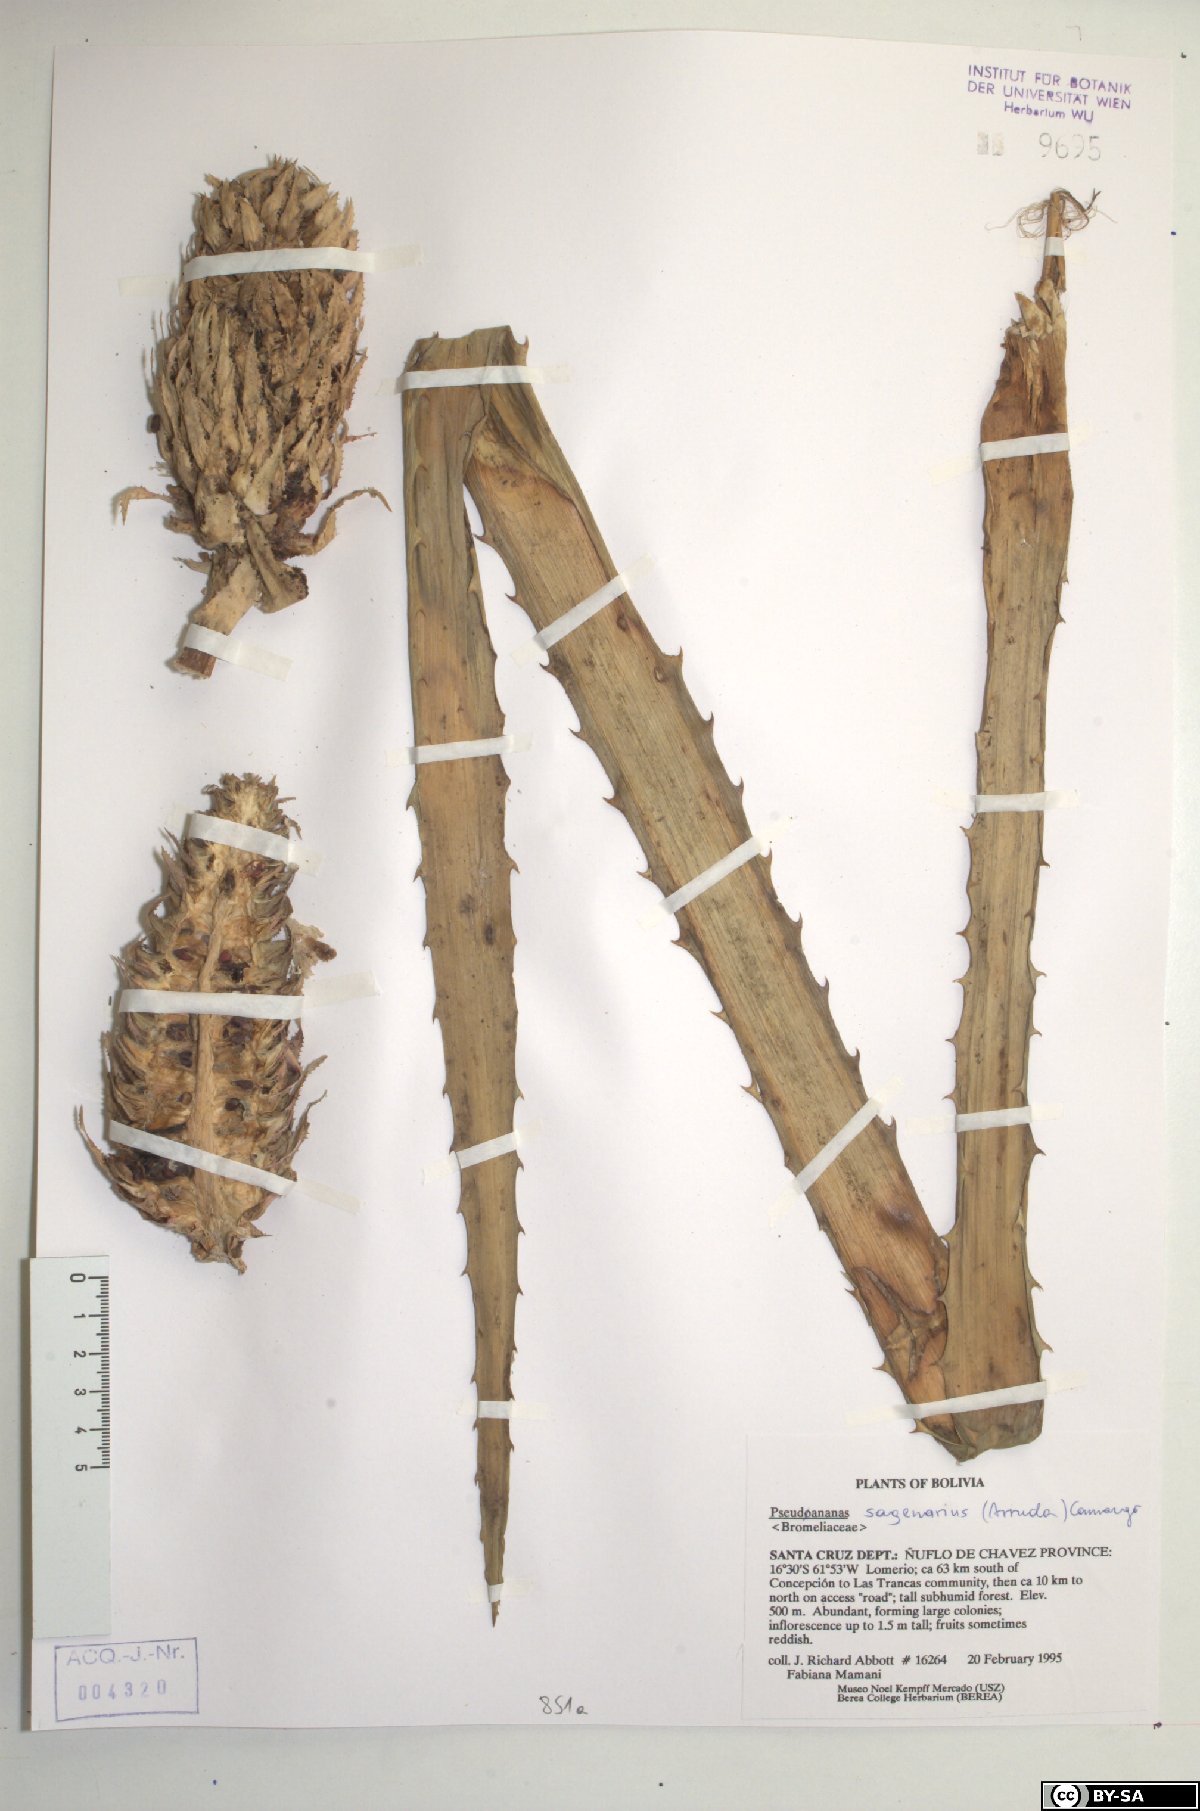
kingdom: Plantae
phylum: Tracheophyta
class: Liliopsida
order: Poales
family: Bromeliaceae
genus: Ananas
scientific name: Ananas comosus
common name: Pineapple
